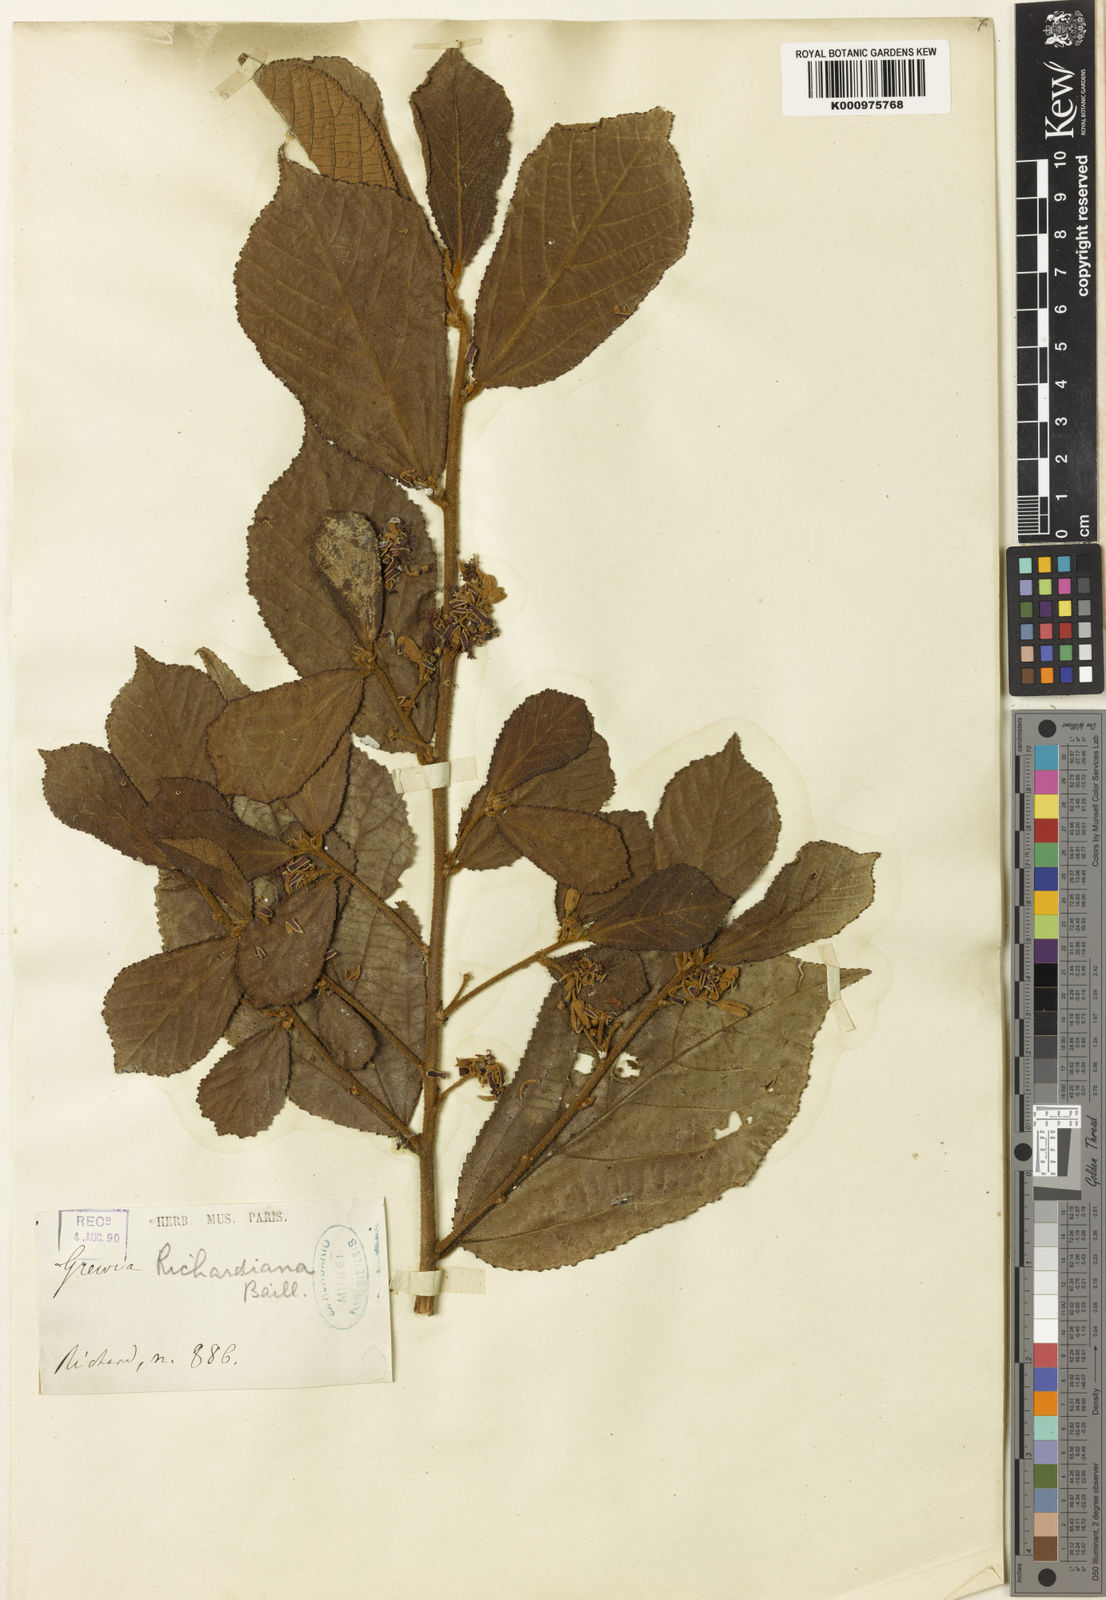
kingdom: Plantae
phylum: Tracheophyta
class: Magnoliopsida
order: Malvales
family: Malvaceae
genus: Grewia
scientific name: Grewia apetala
